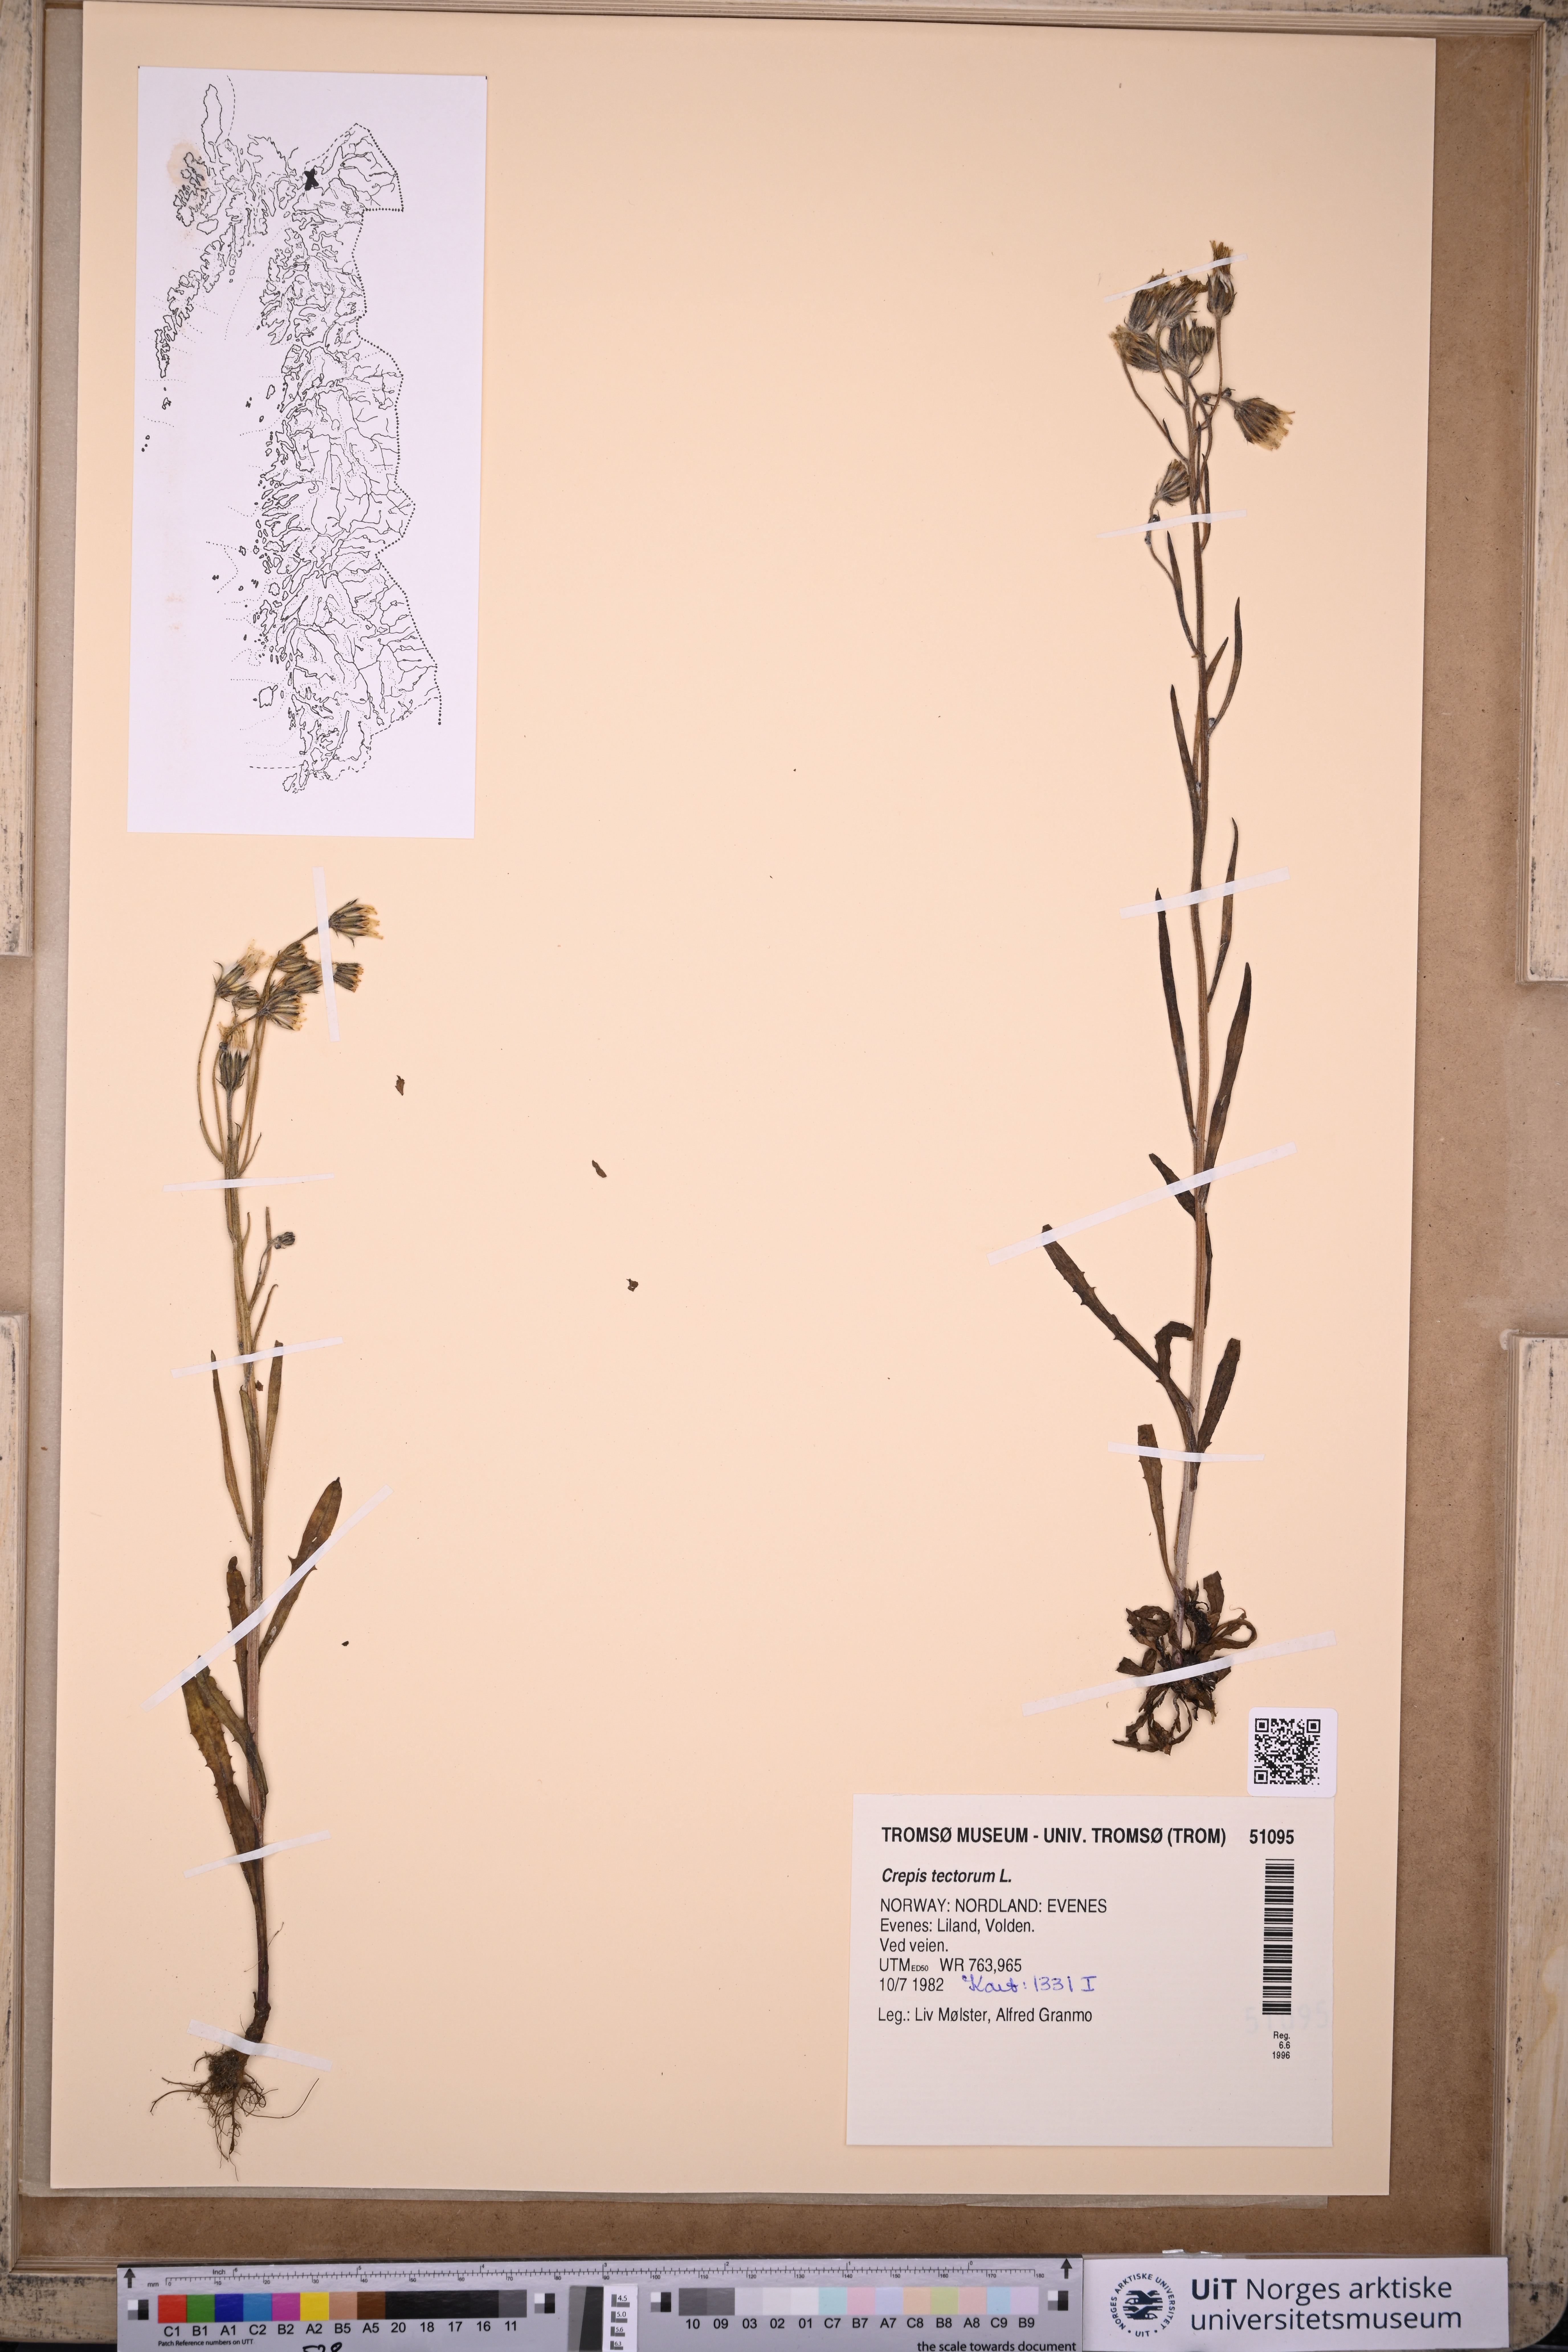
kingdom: Plantae
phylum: Tracheophyta
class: Magnoliopsida
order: Asterales
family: Asteraceae
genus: Crepis
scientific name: Crepis tectorum
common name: Narrow-leaved hawk's-beard
